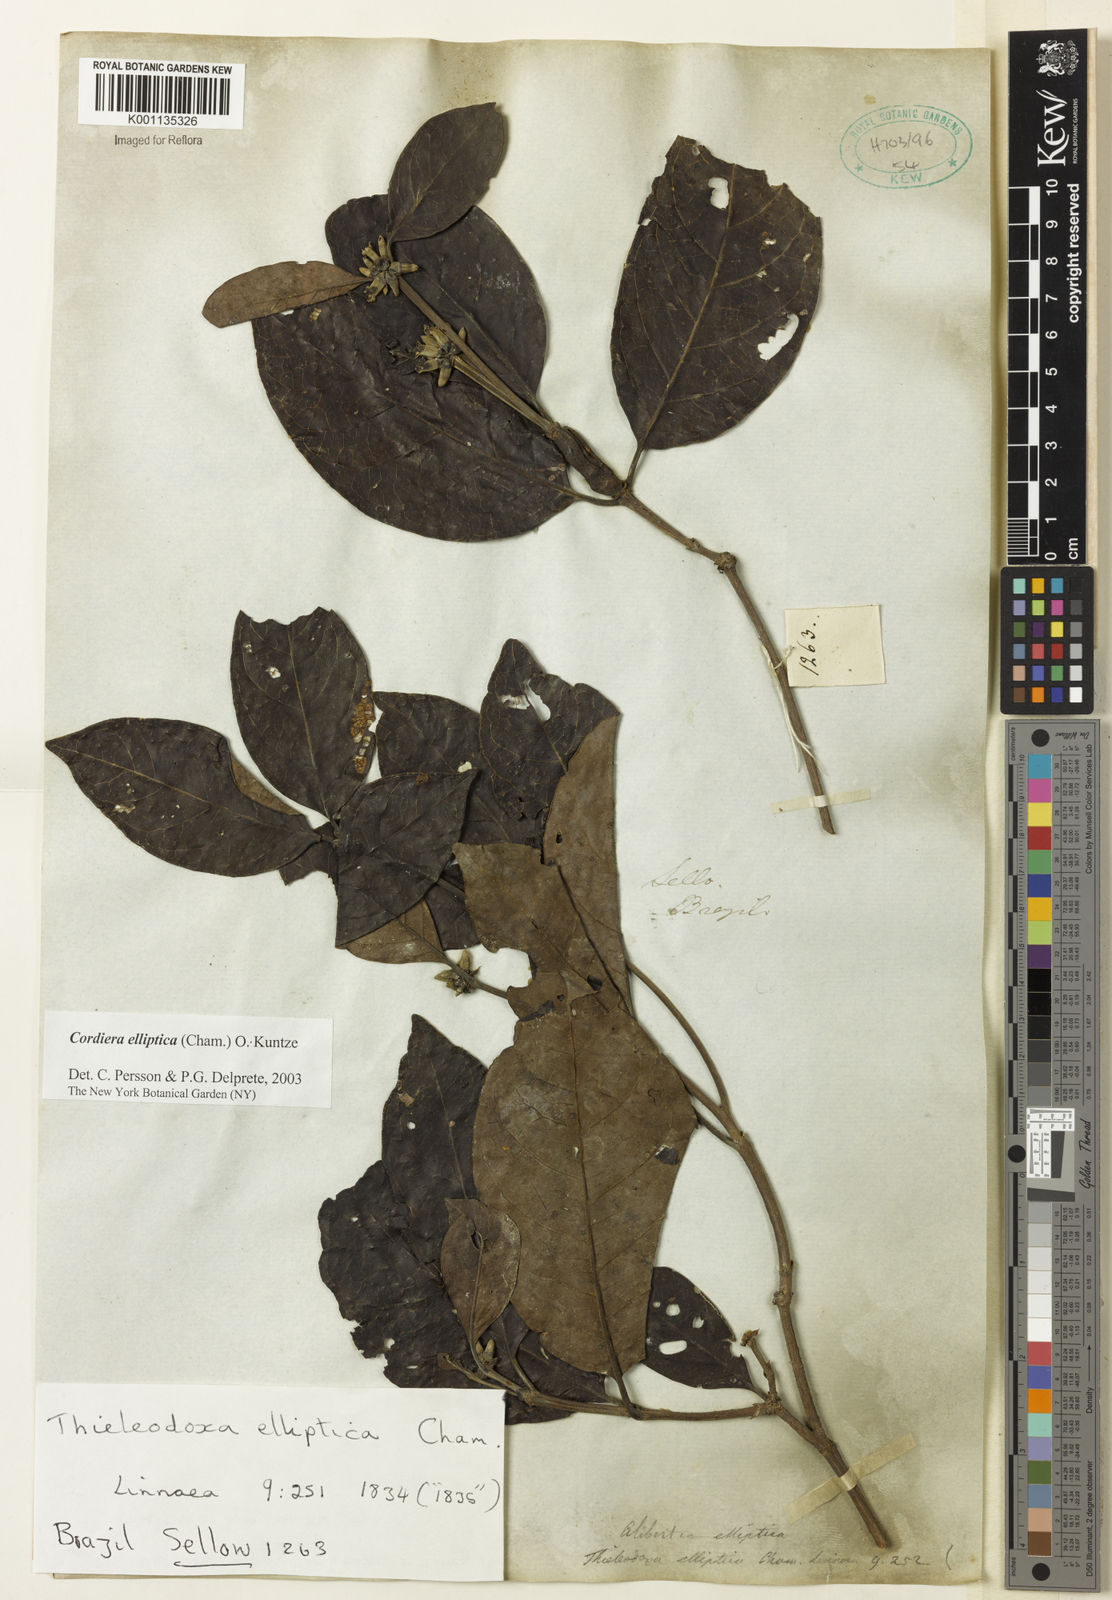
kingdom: Plantae
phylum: Tracheophyta
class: Magnoliopsida
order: Gentianales
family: Rubiaceae
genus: Cordiera
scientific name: Cordiera elliptica
